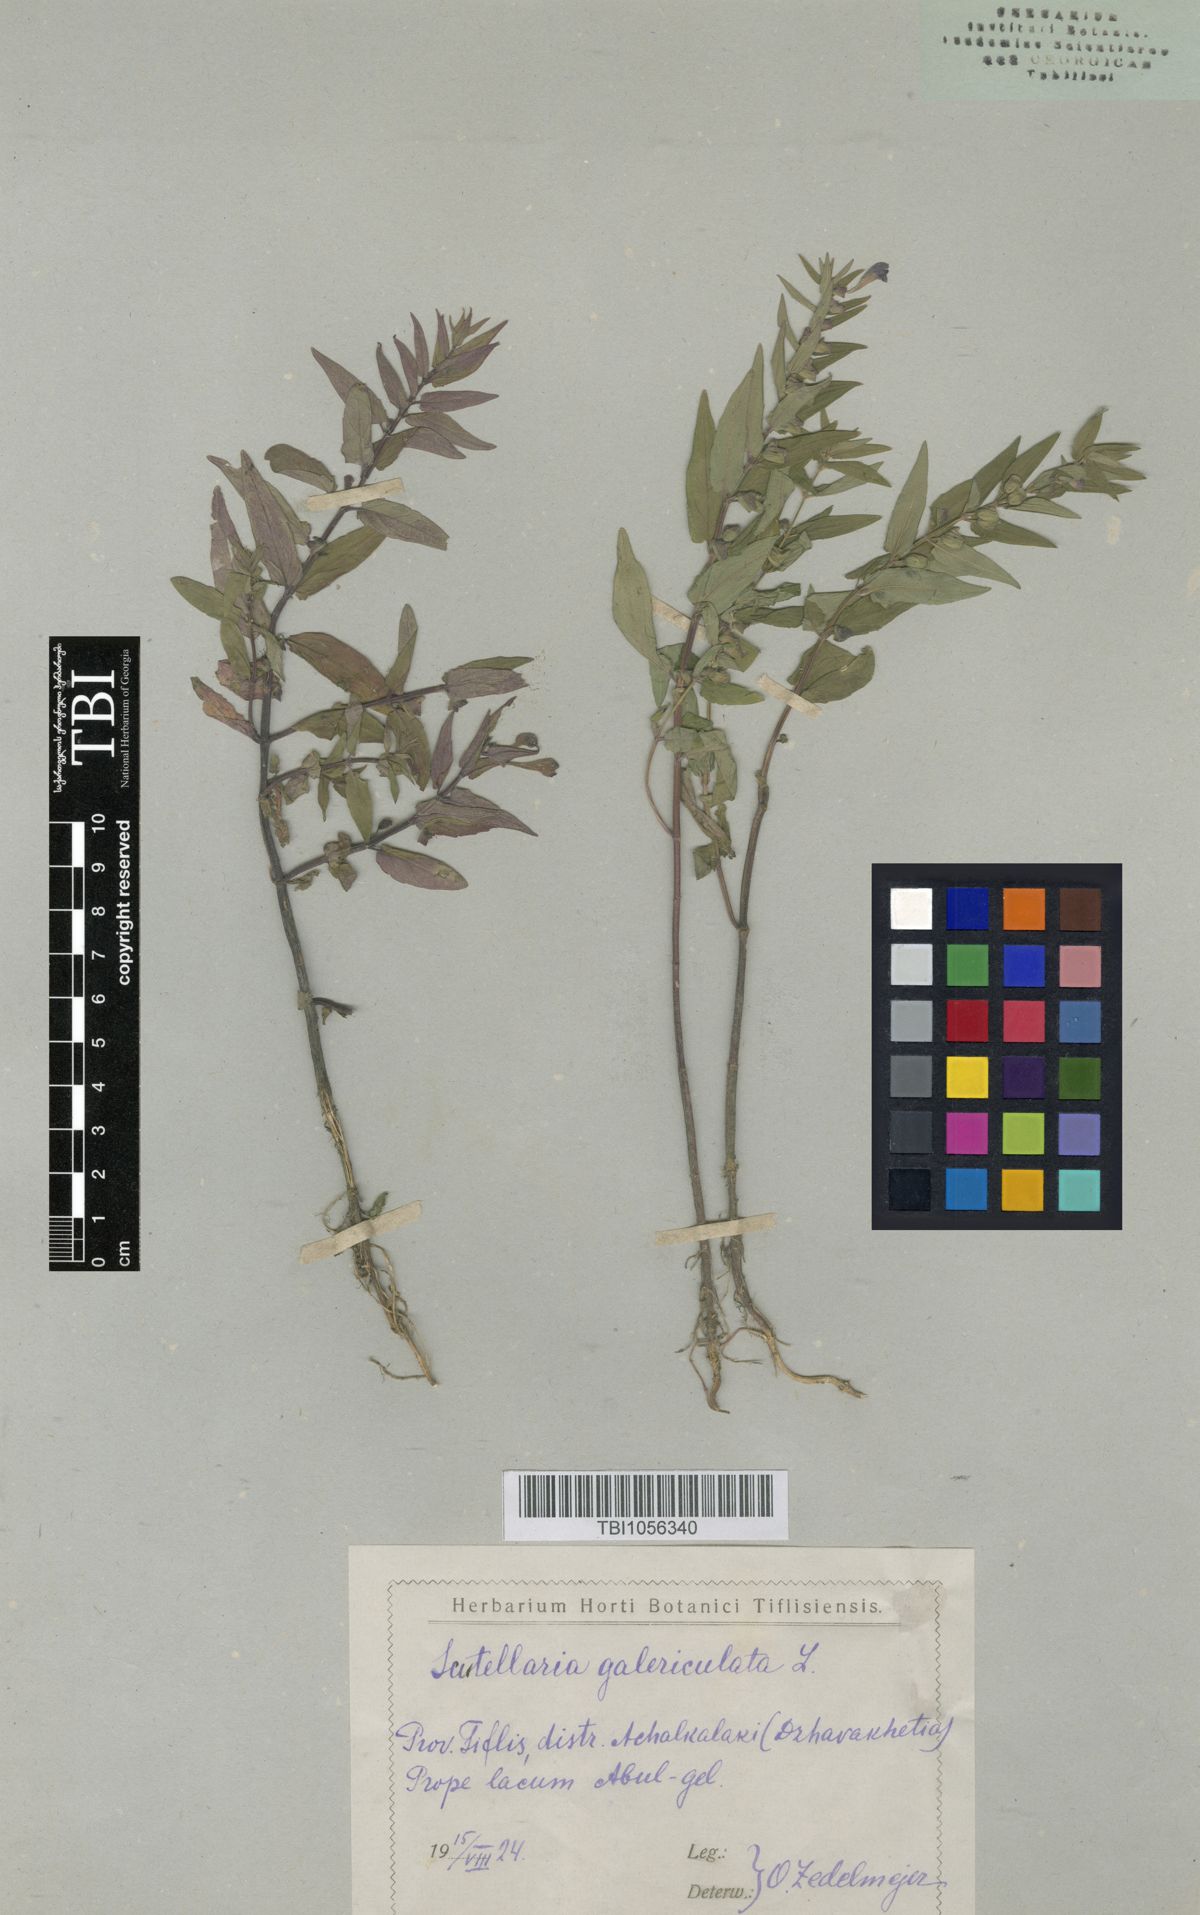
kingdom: Plantae
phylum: Tracheophyta
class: Magnoliopsida
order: Lamiales
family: Lamiaceae
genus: Scutellaria
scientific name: Scutellaria galericulata
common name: Skullcap
